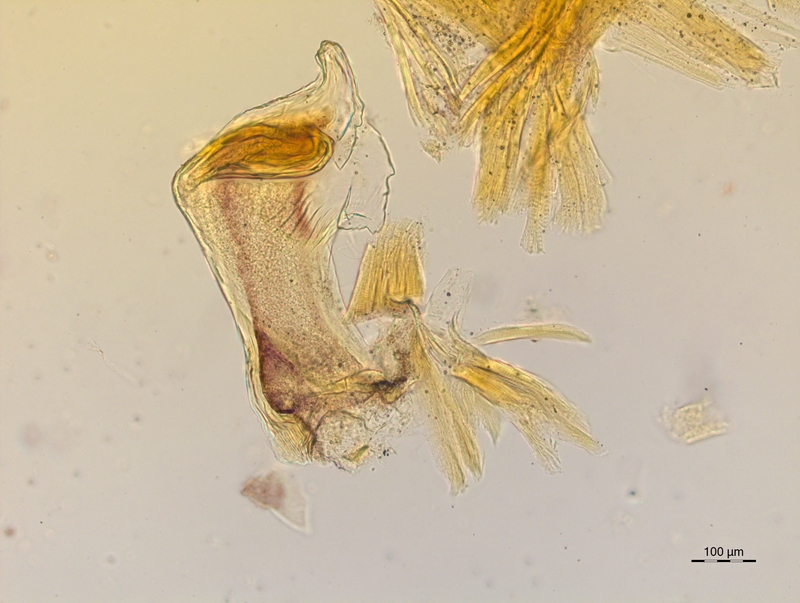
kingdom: Animalia
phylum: Arthropoda
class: Diplopoda
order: Chordeumatida
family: Craspedosomatidae
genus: Craspedosoma
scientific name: Craspedosoma rawlinsii
